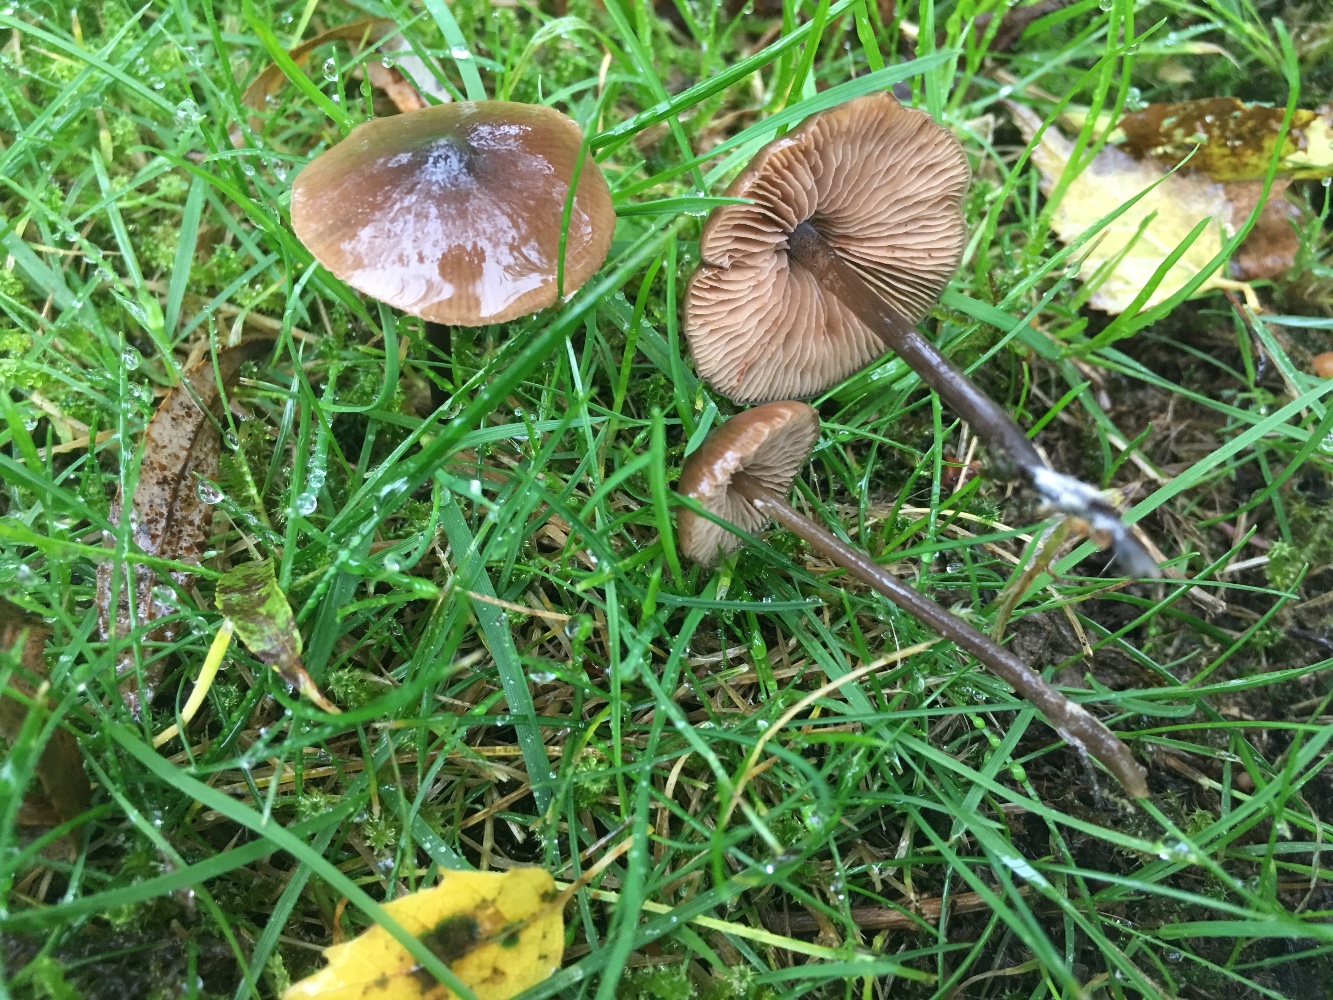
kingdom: Fungi
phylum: Basidiomycota
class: Agaricomycetes
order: Agaricales
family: Entolomataceae
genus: Entoloma
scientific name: Entoloma
